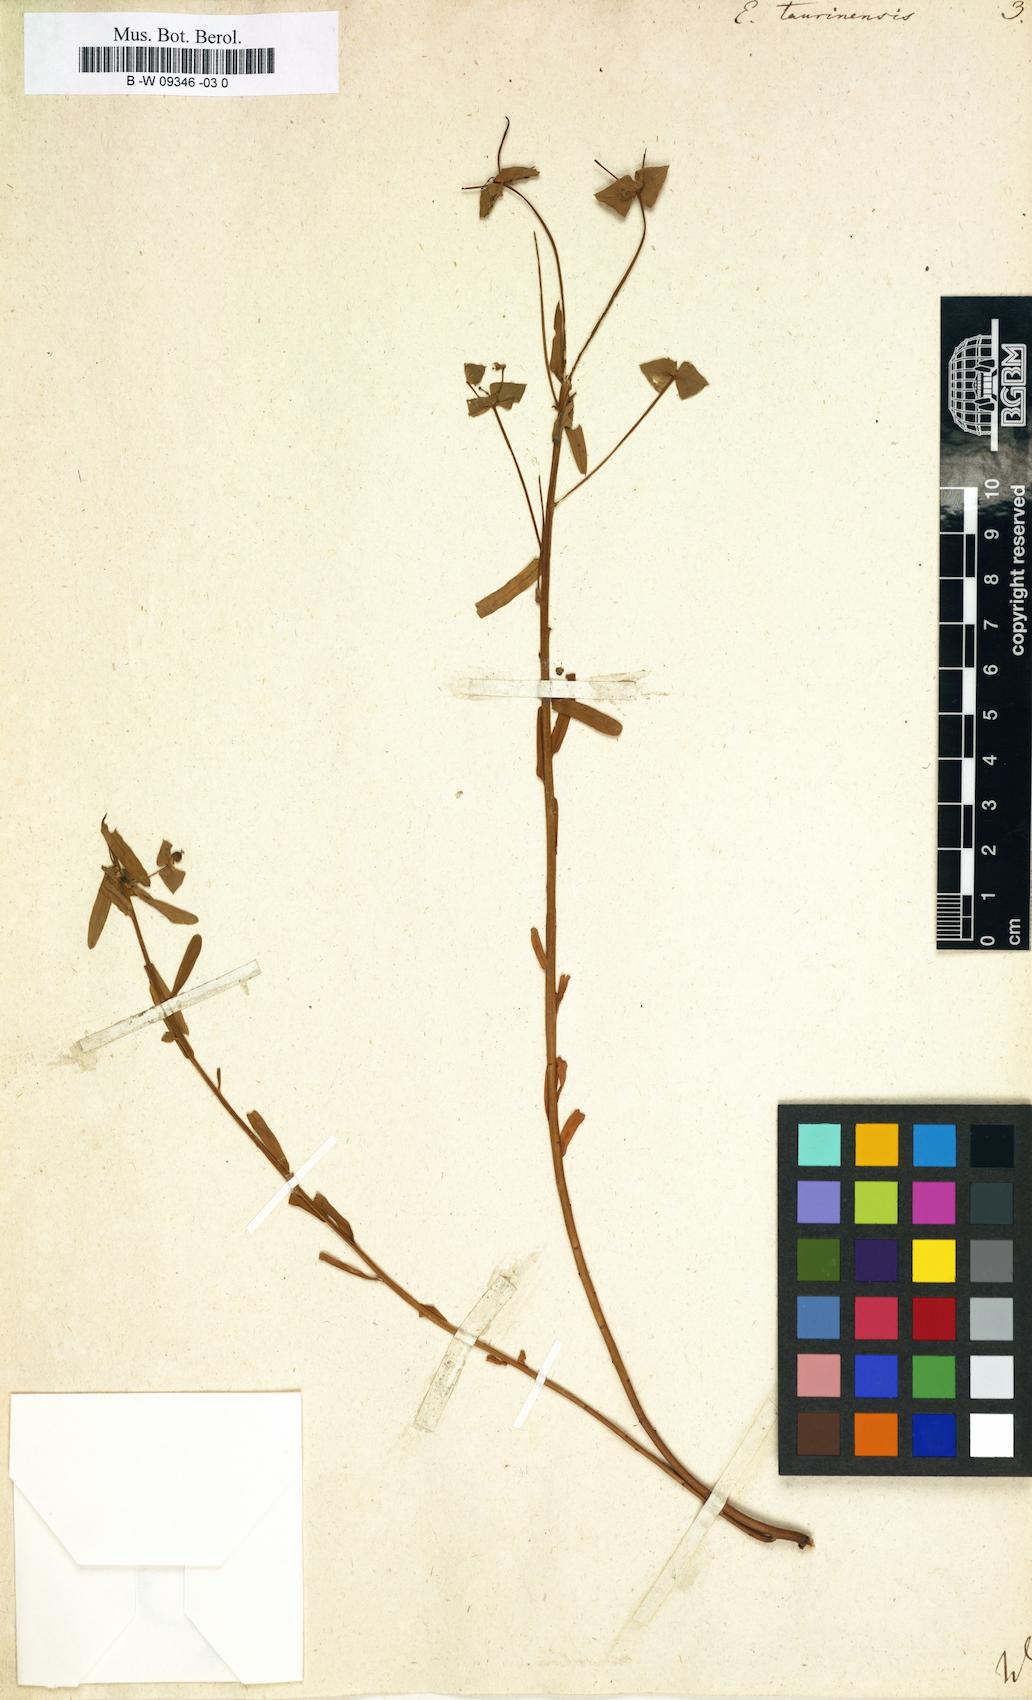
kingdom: Plantae
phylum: Tracheophyta
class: Magnoliopsida
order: Malpighiales
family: Euphorbiaceae
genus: Euphorbia
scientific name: Euphorbia taurinensis
